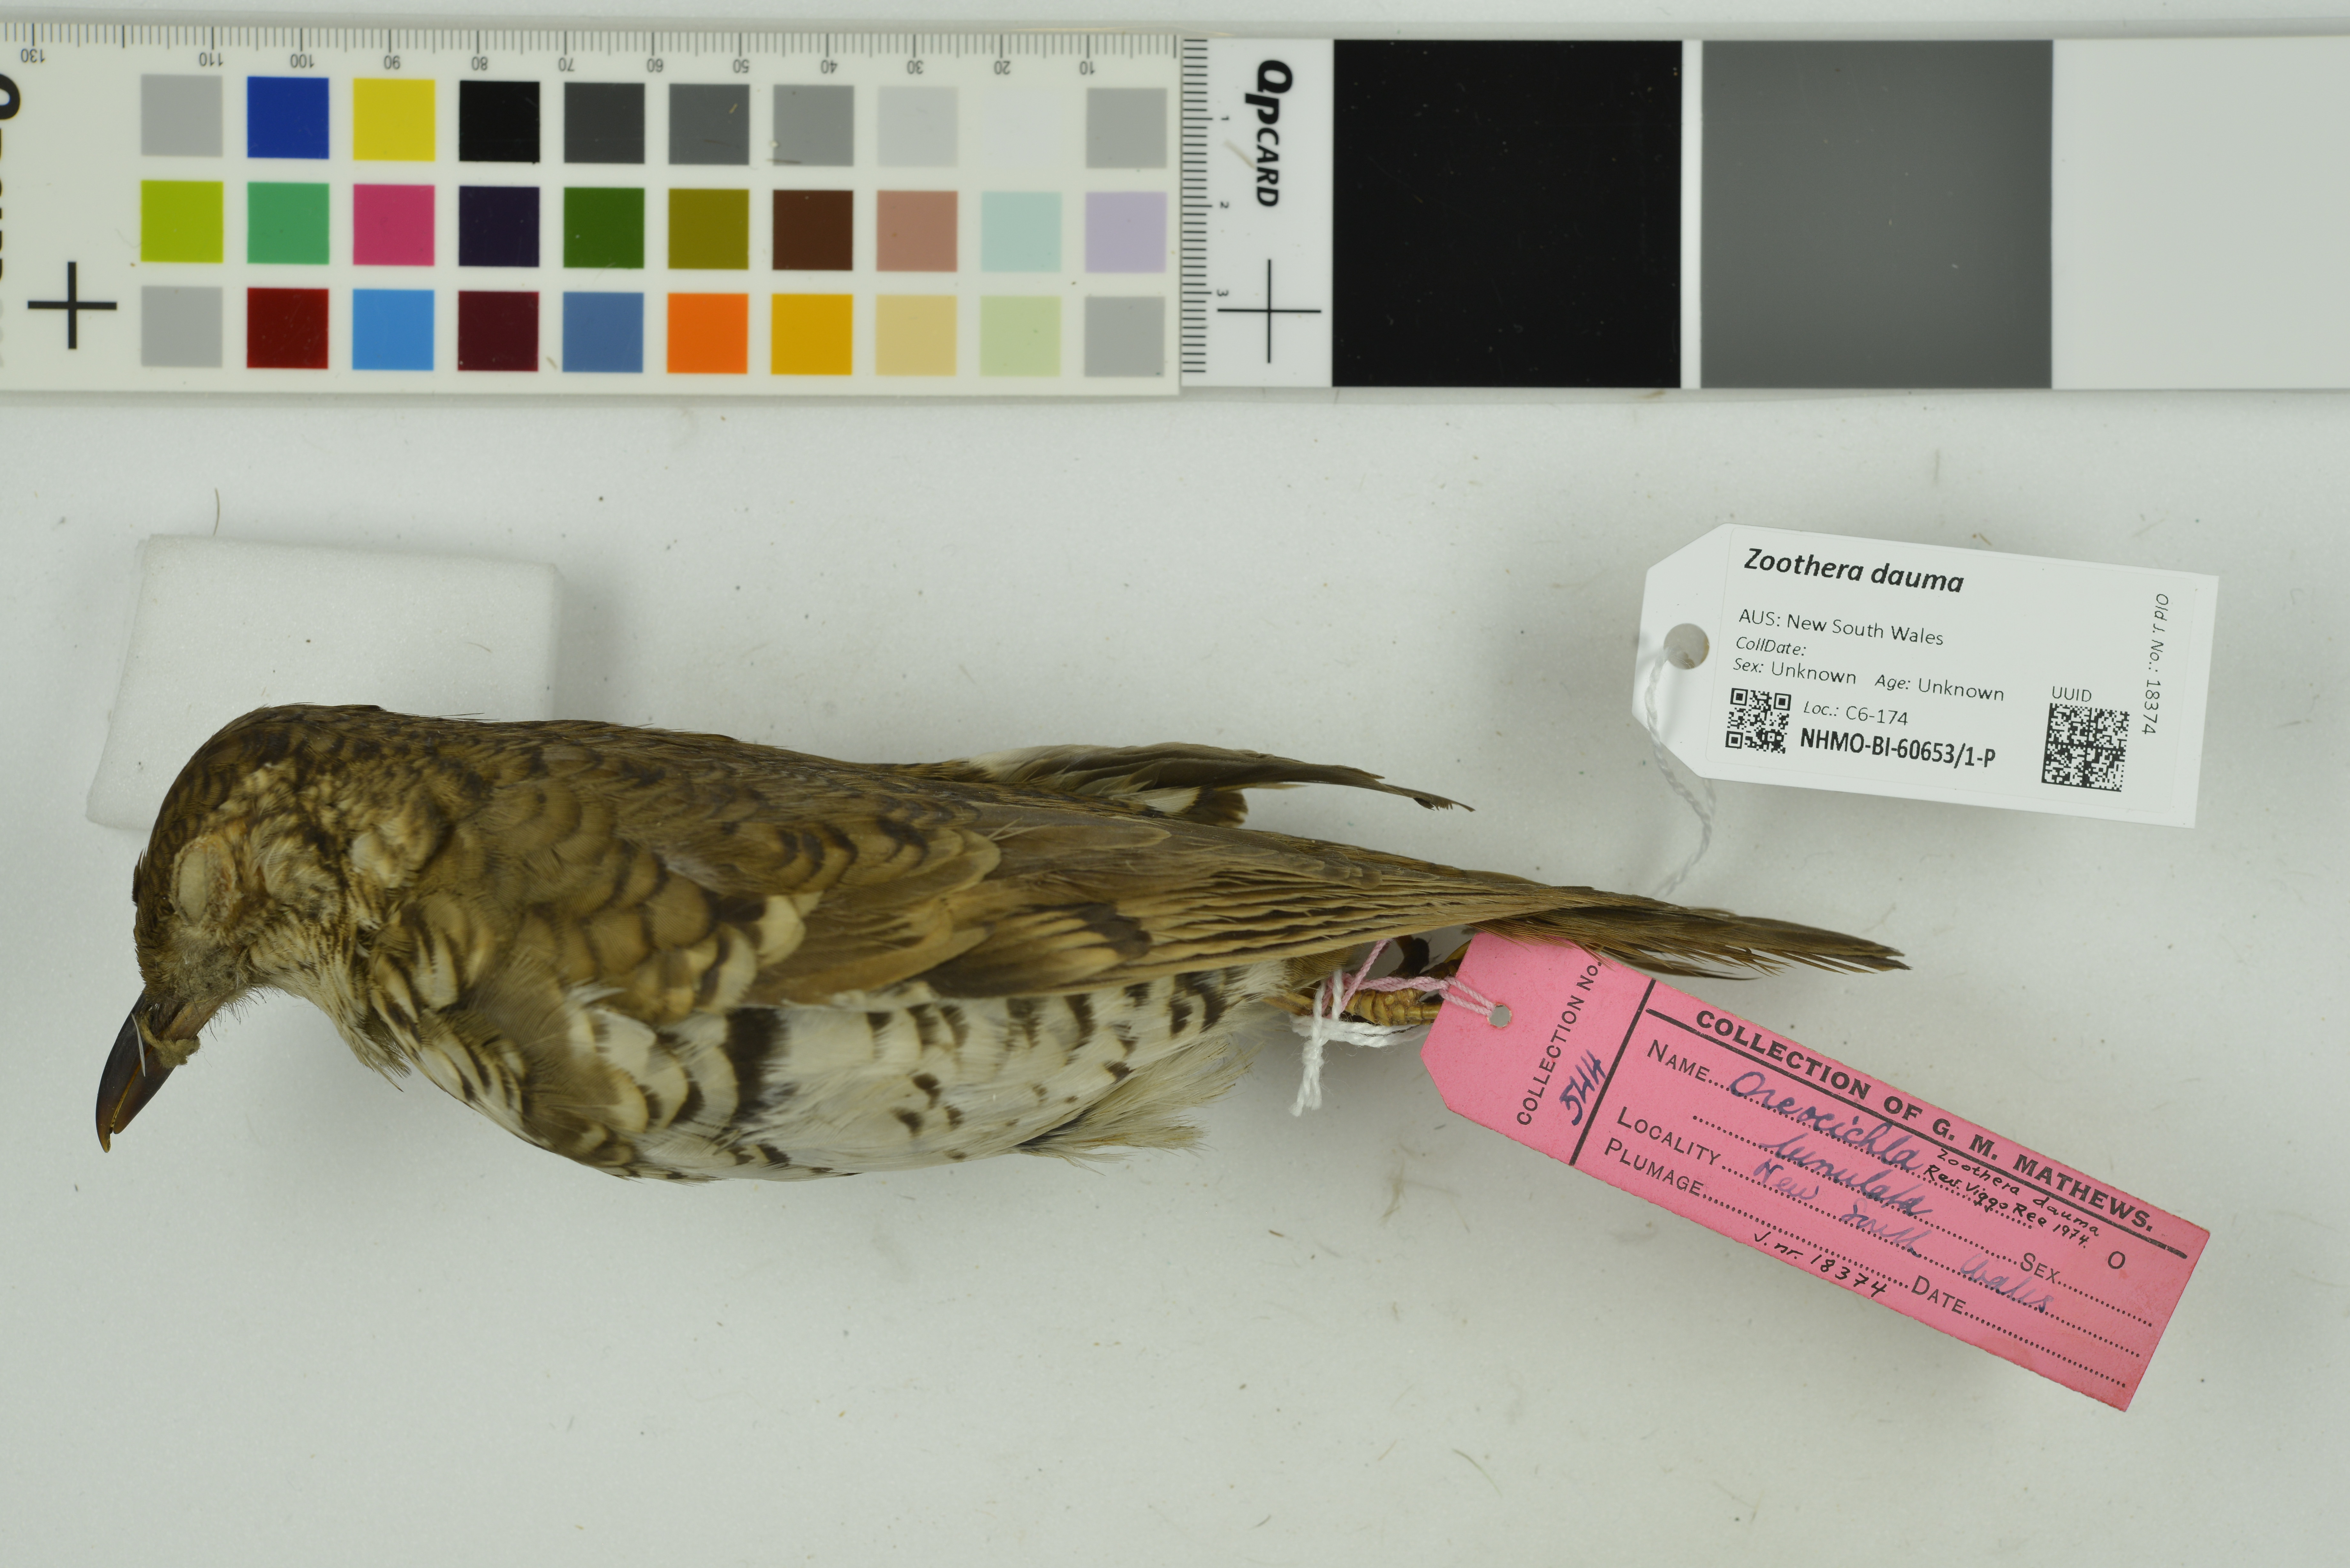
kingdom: Animalia
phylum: Chordata
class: Aves
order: Passeriformes
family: Turdidae
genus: Zoothera
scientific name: Zoothera dauma
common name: Scaly thrush
